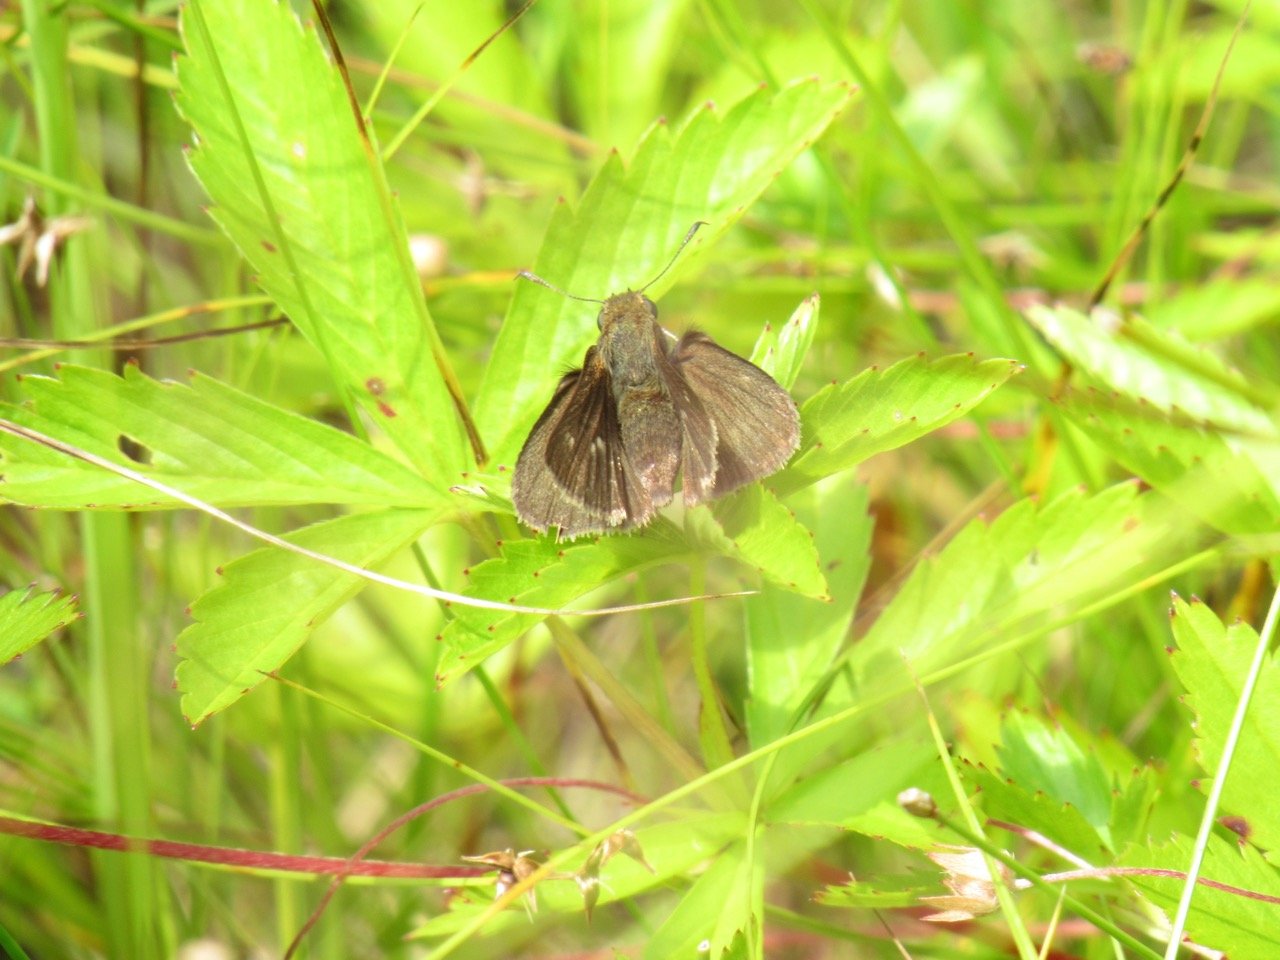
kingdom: Animalia
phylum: Arthropoda
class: Insecta
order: Lepidoptera
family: Hesperiidae
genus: Euphyes
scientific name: Euphyes vestris
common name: Dun Skipper
